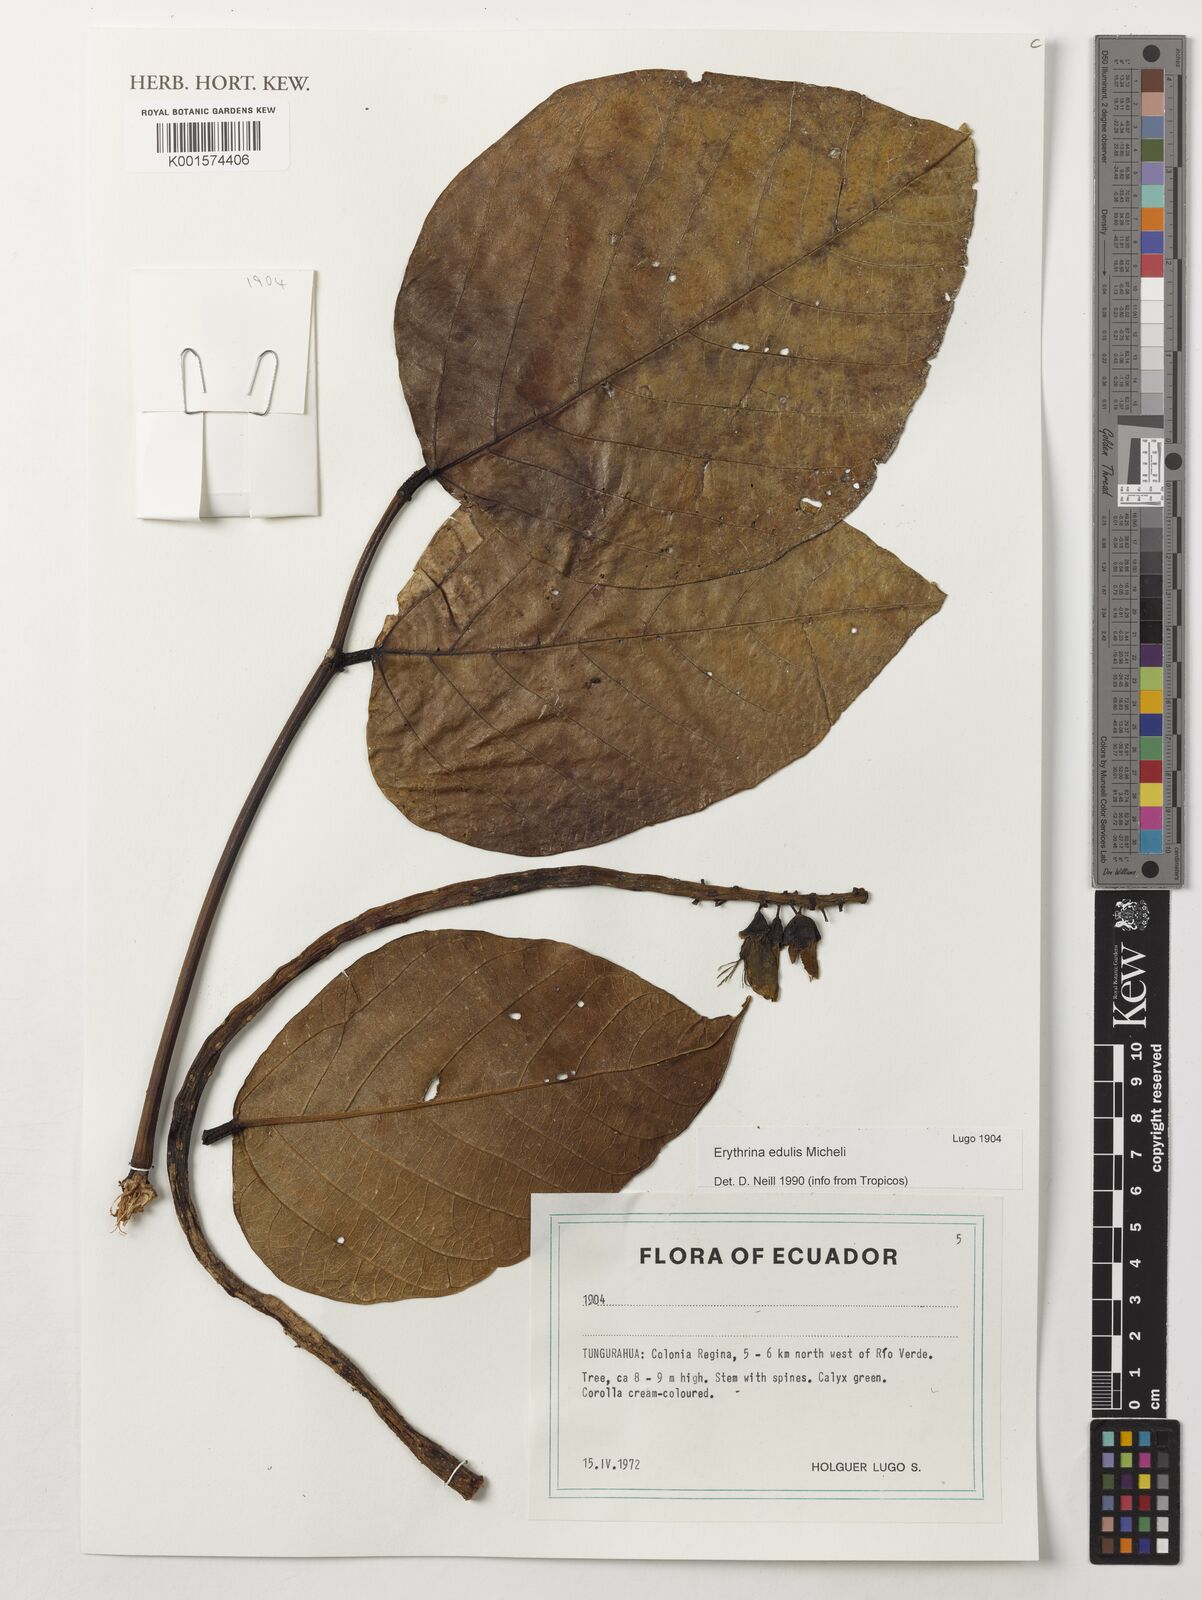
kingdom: Plantae
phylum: Tracheophyta
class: Magnoliopsida
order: Fabales
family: Fabaceae
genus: Erythrina
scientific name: Erythrina edulis
